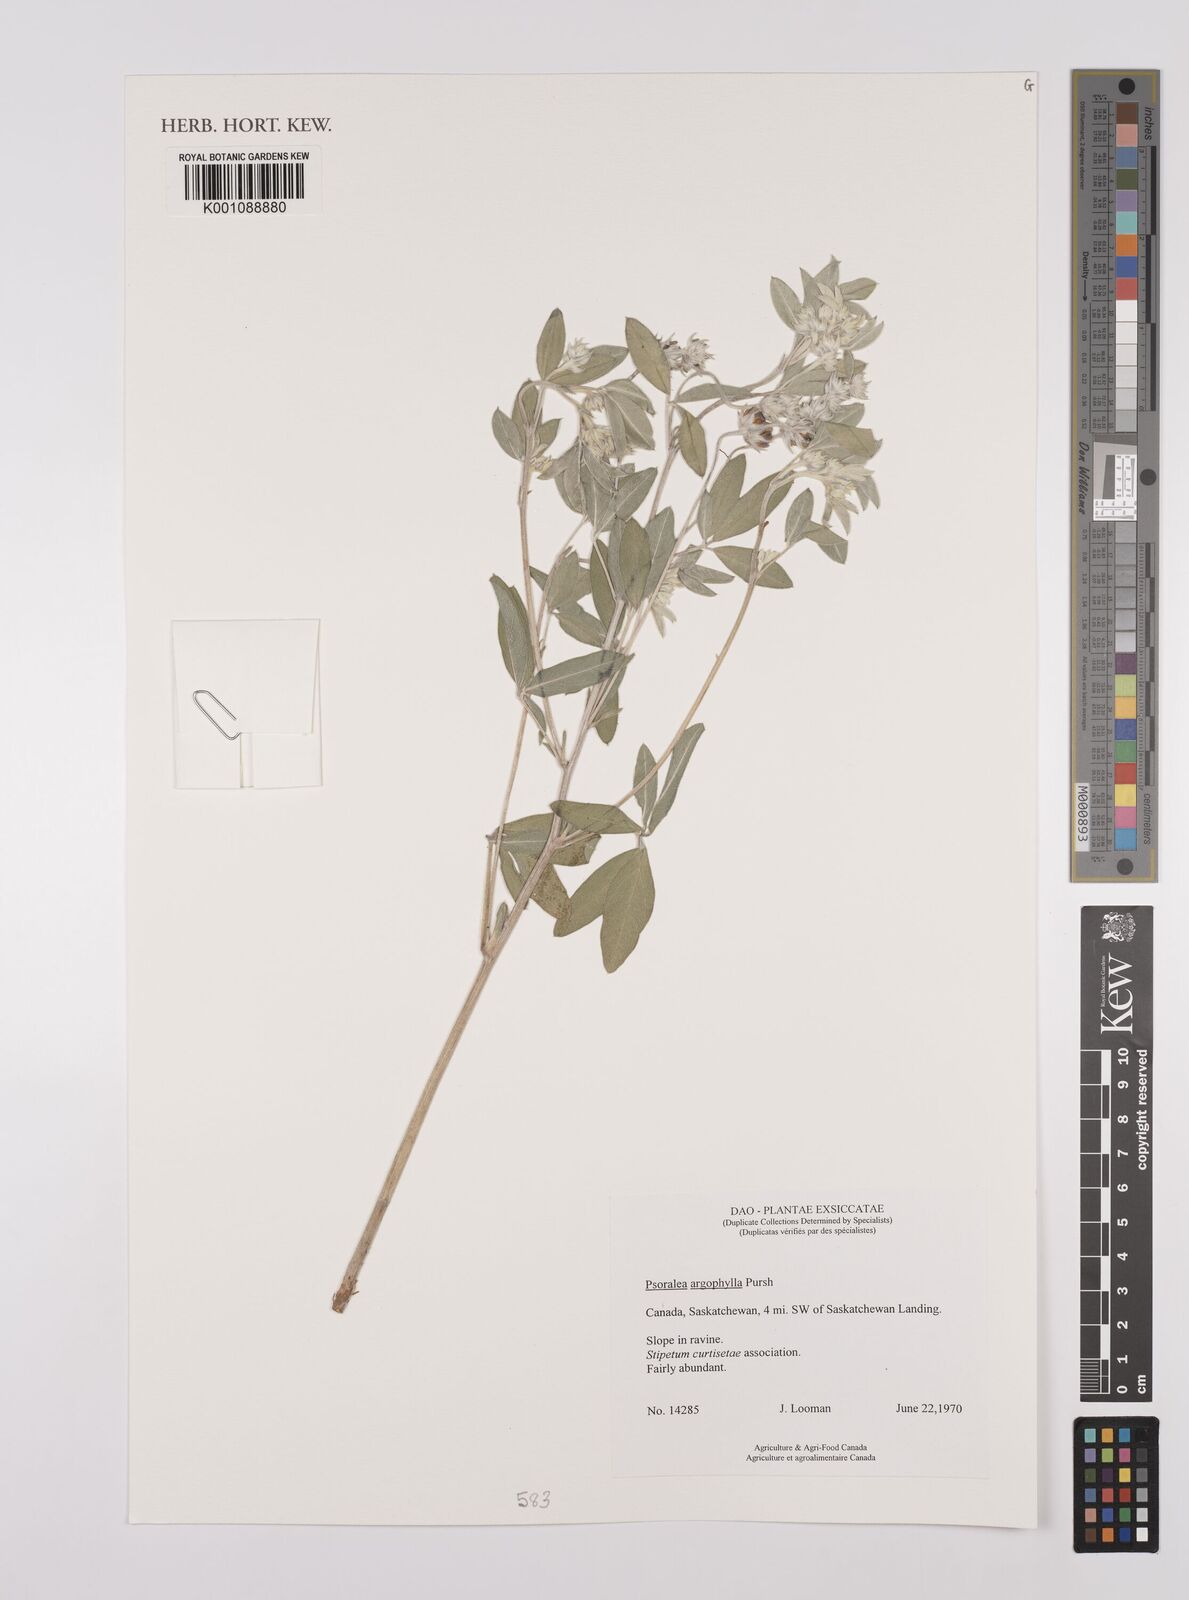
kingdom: Plantae
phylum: Tracheophyta
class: Magnoliopsida
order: Fabales
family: Fabaceae
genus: Pediomelum
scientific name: Pediomelum argophyllum
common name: Silver-leaved indian breadroot
